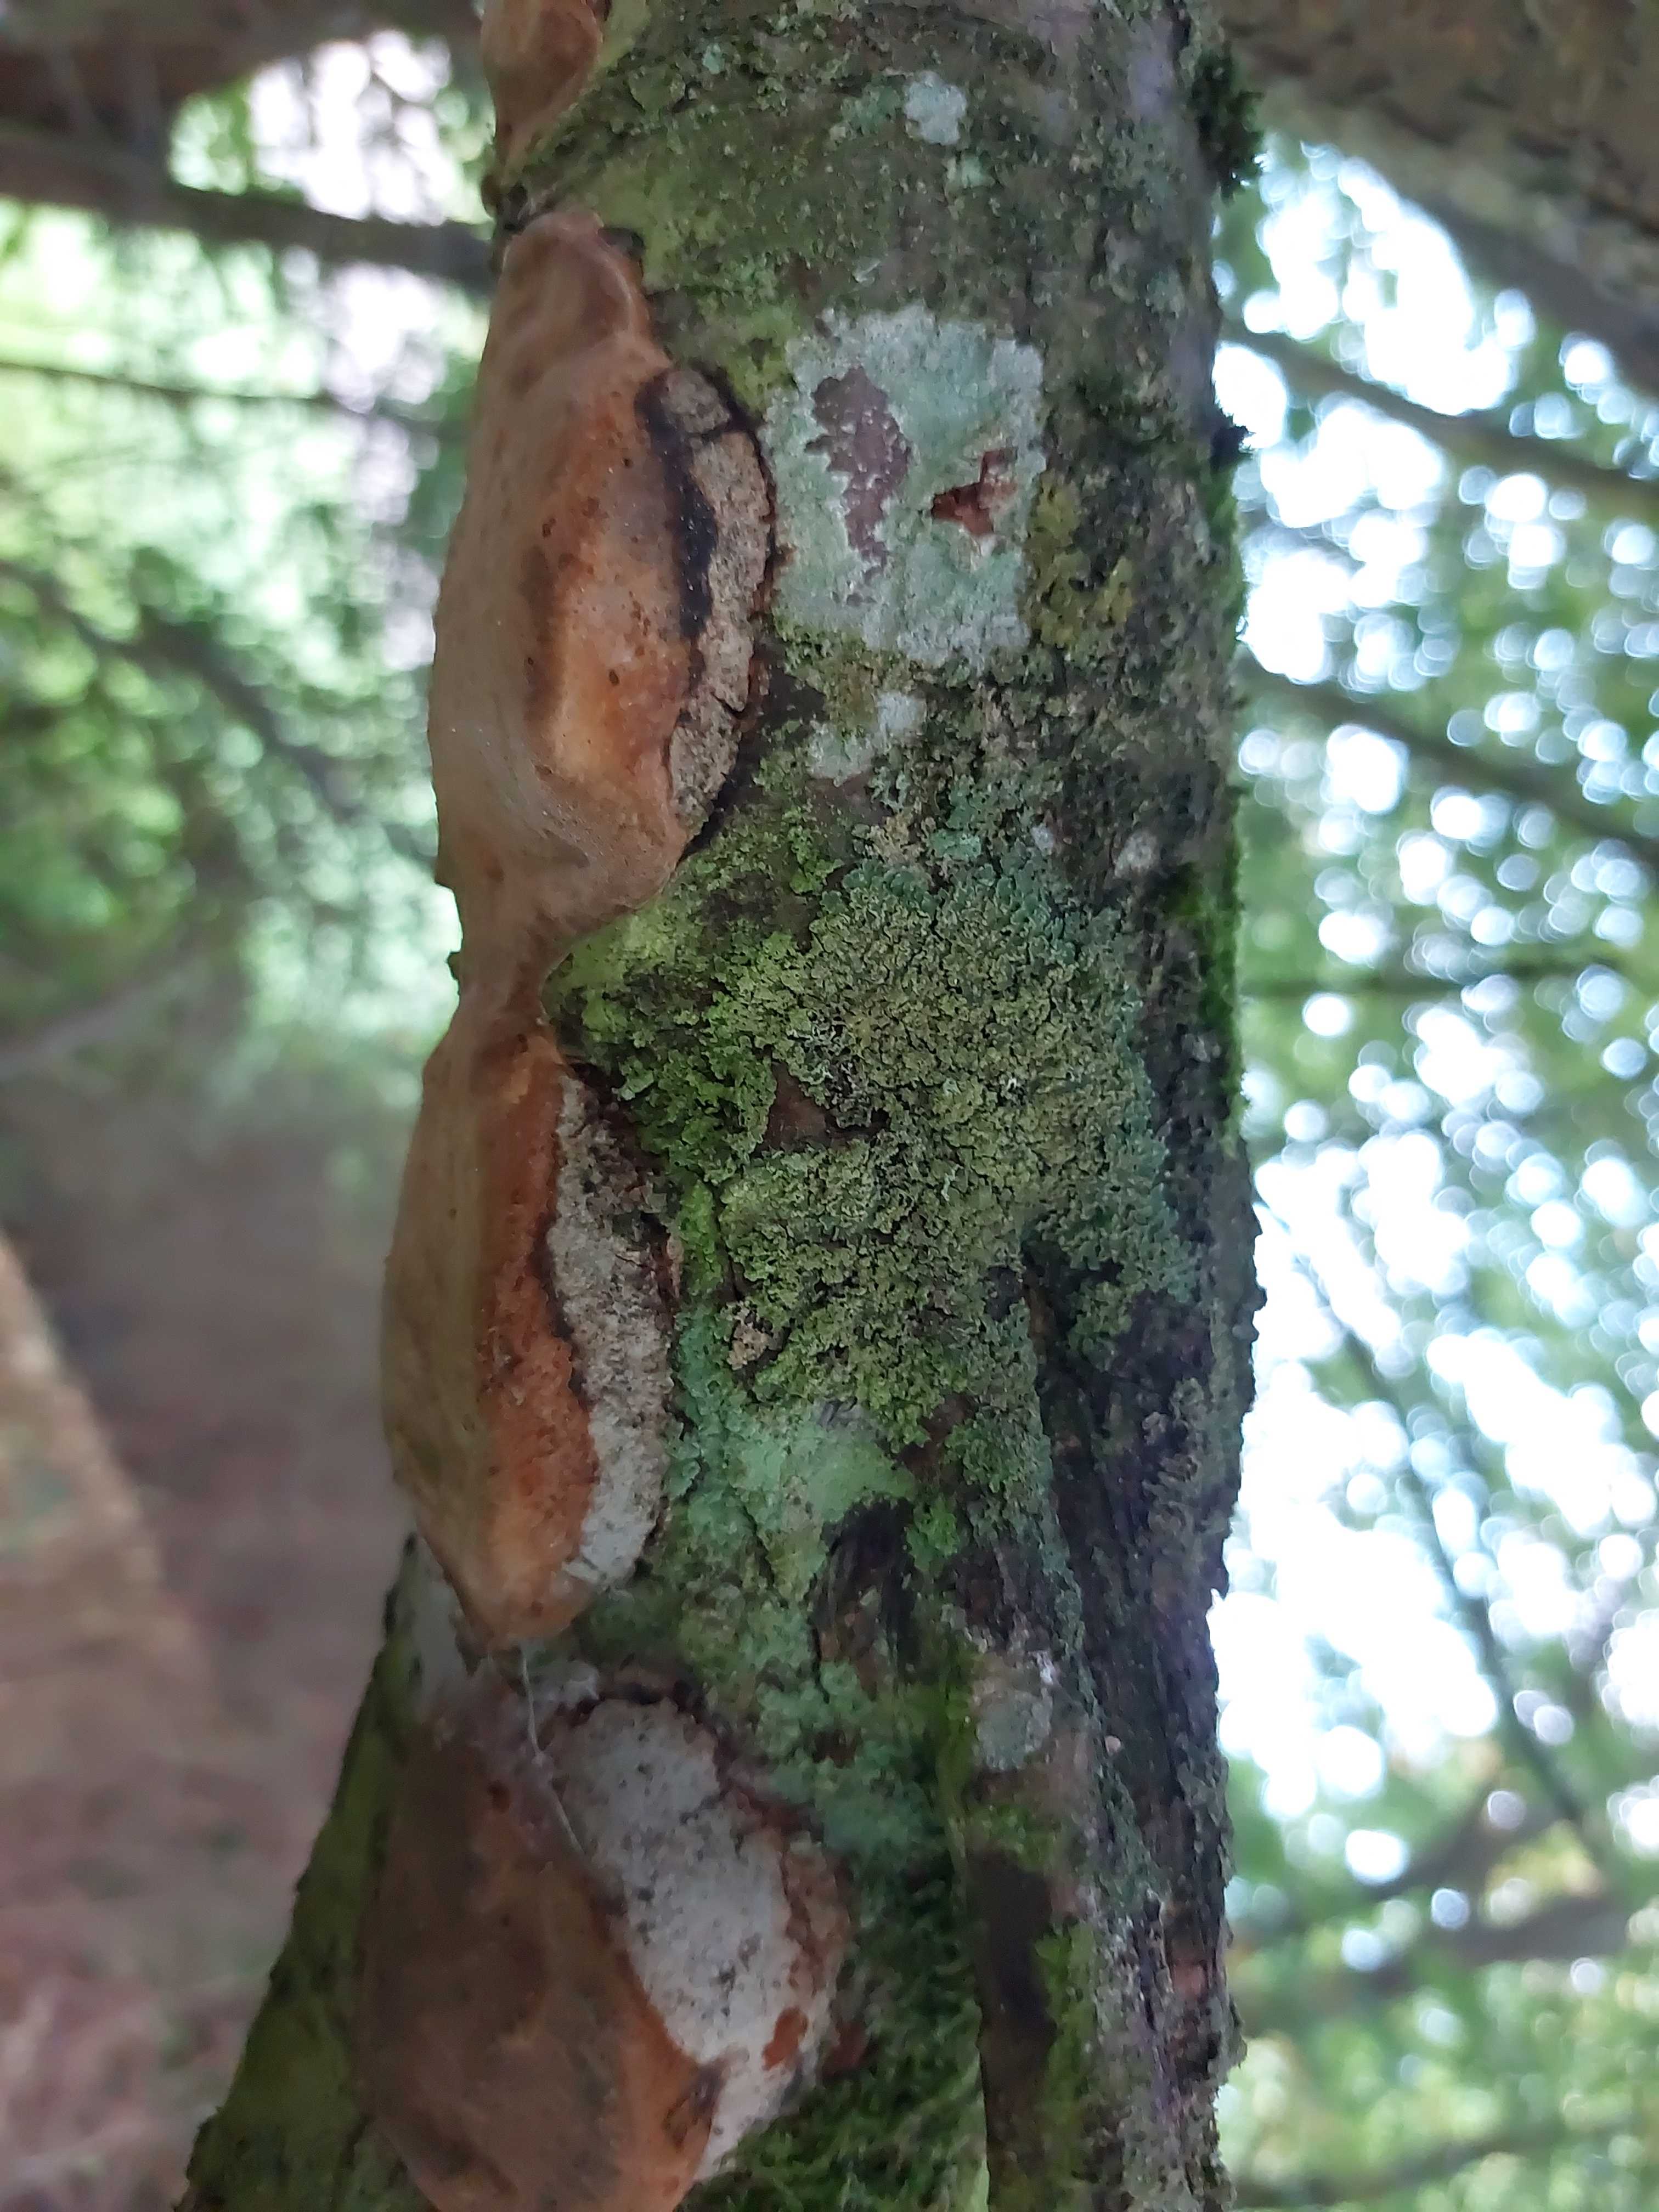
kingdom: Fungi
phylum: Basidiomycota
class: Agaricomycetes
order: Hymenochaetales
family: Hymenochaetaceae
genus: Phellinus
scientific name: Phellinus pomaceus
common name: blomme-ildporesvamp
